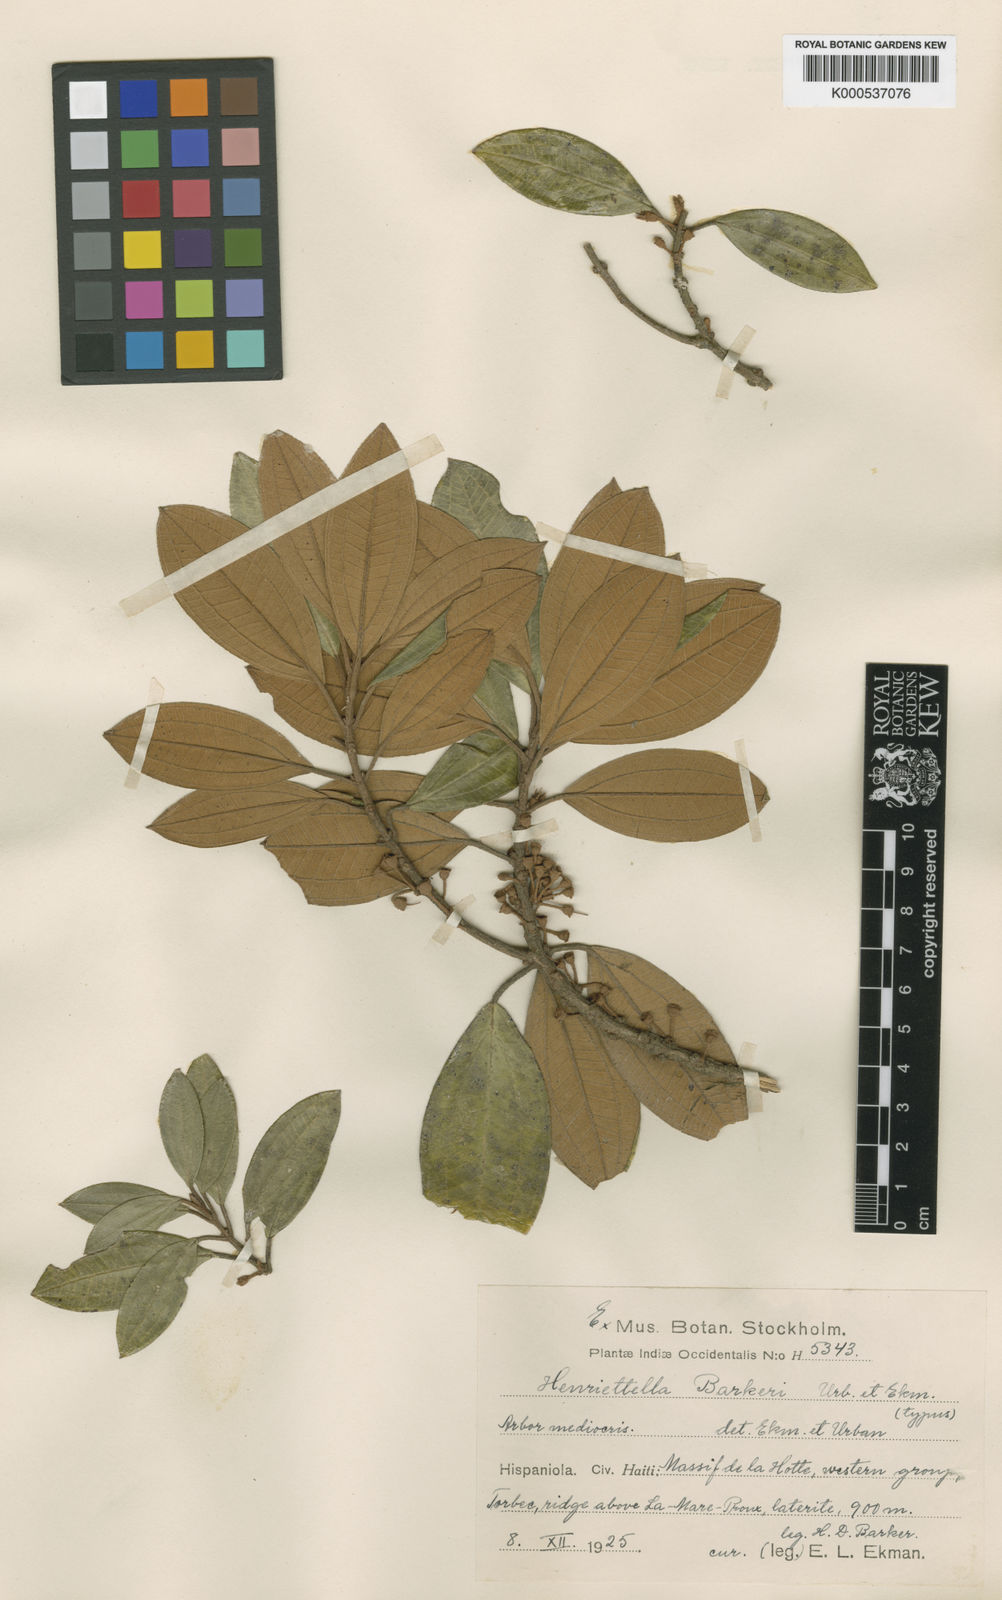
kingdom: Plantae
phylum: Tracheophyta
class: Magnoliopsida
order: Myrtales
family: Melastomataceae
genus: Henriettea
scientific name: Henriettea barkeri
